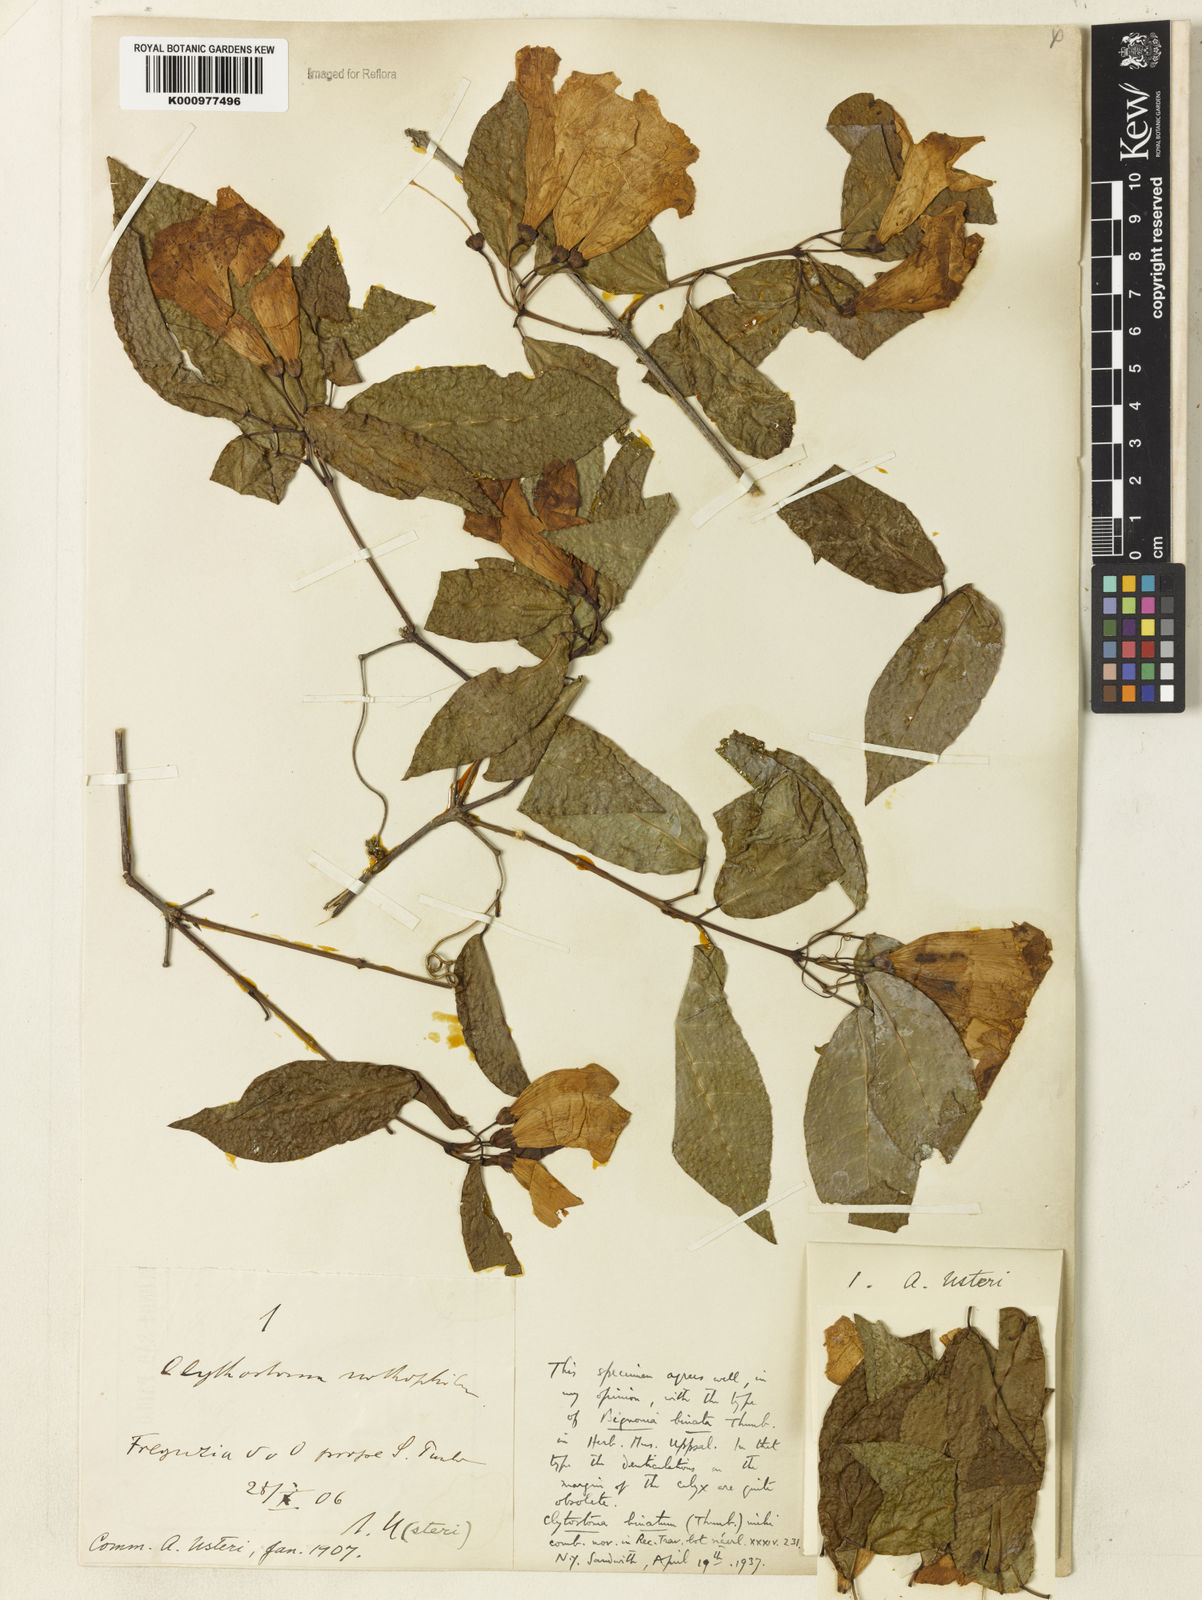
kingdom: Plantae
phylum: Tracheophyta
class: Magnoliopsida
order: Lamiales
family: Bignoniaceae
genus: Bignonia
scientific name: Bignonia binata
